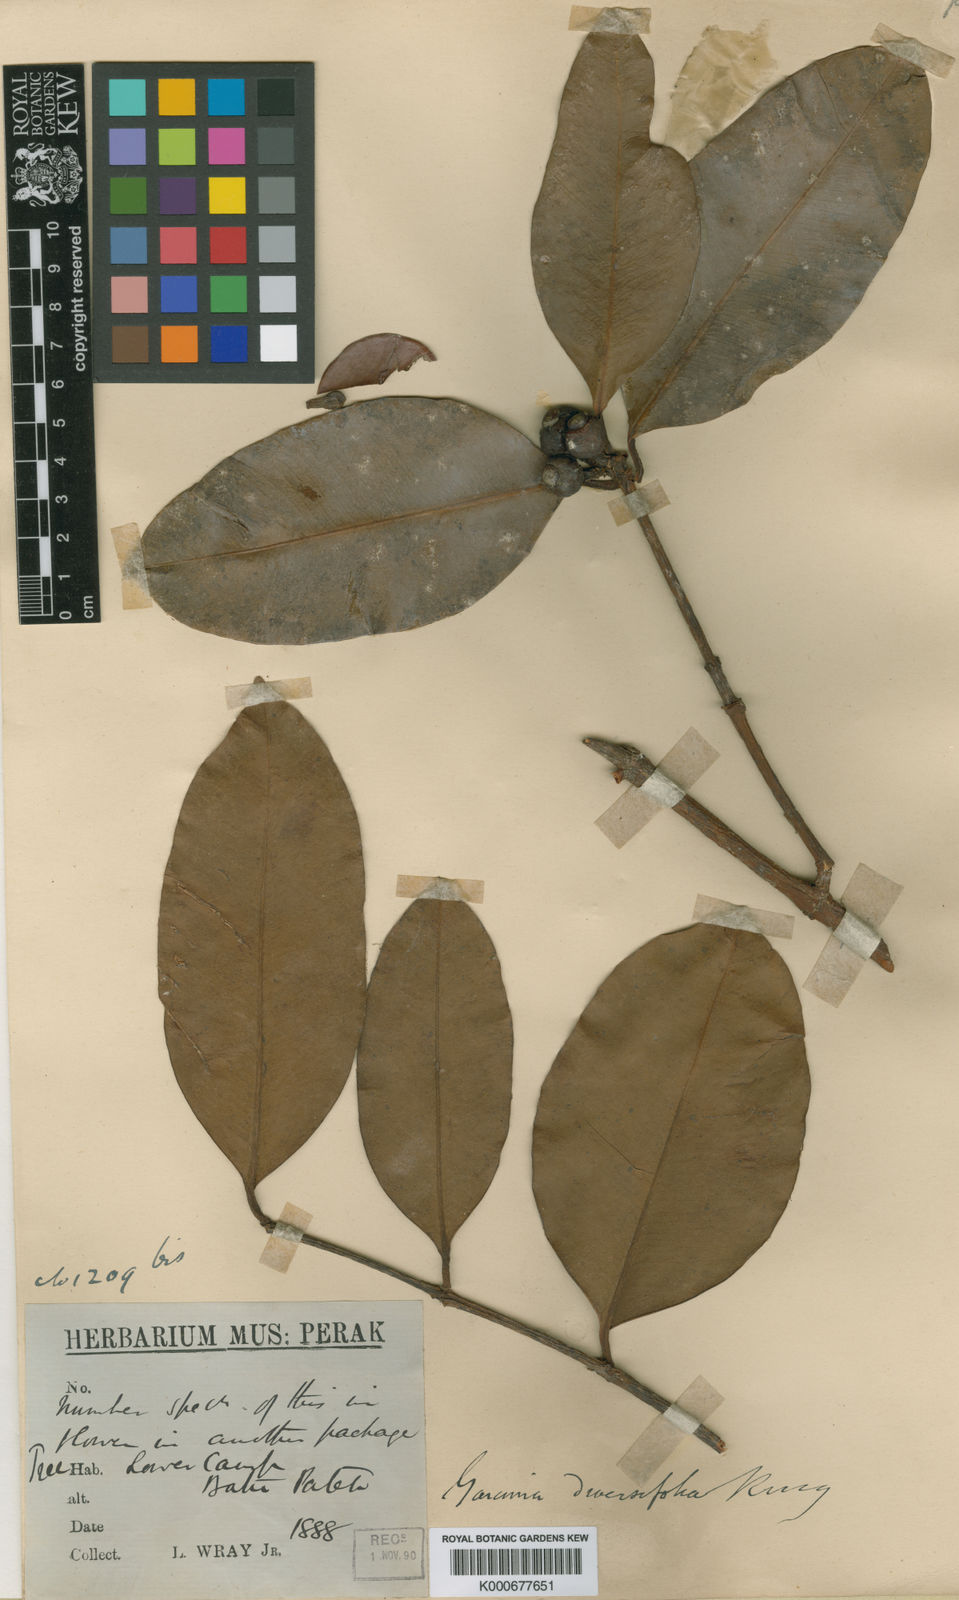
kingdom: Plantae
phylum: Tracheophyta
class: Magnoliopsida
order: Malpighiales
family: Clusiaceae
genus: Garcinia
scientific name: Garcinia diversifolia
